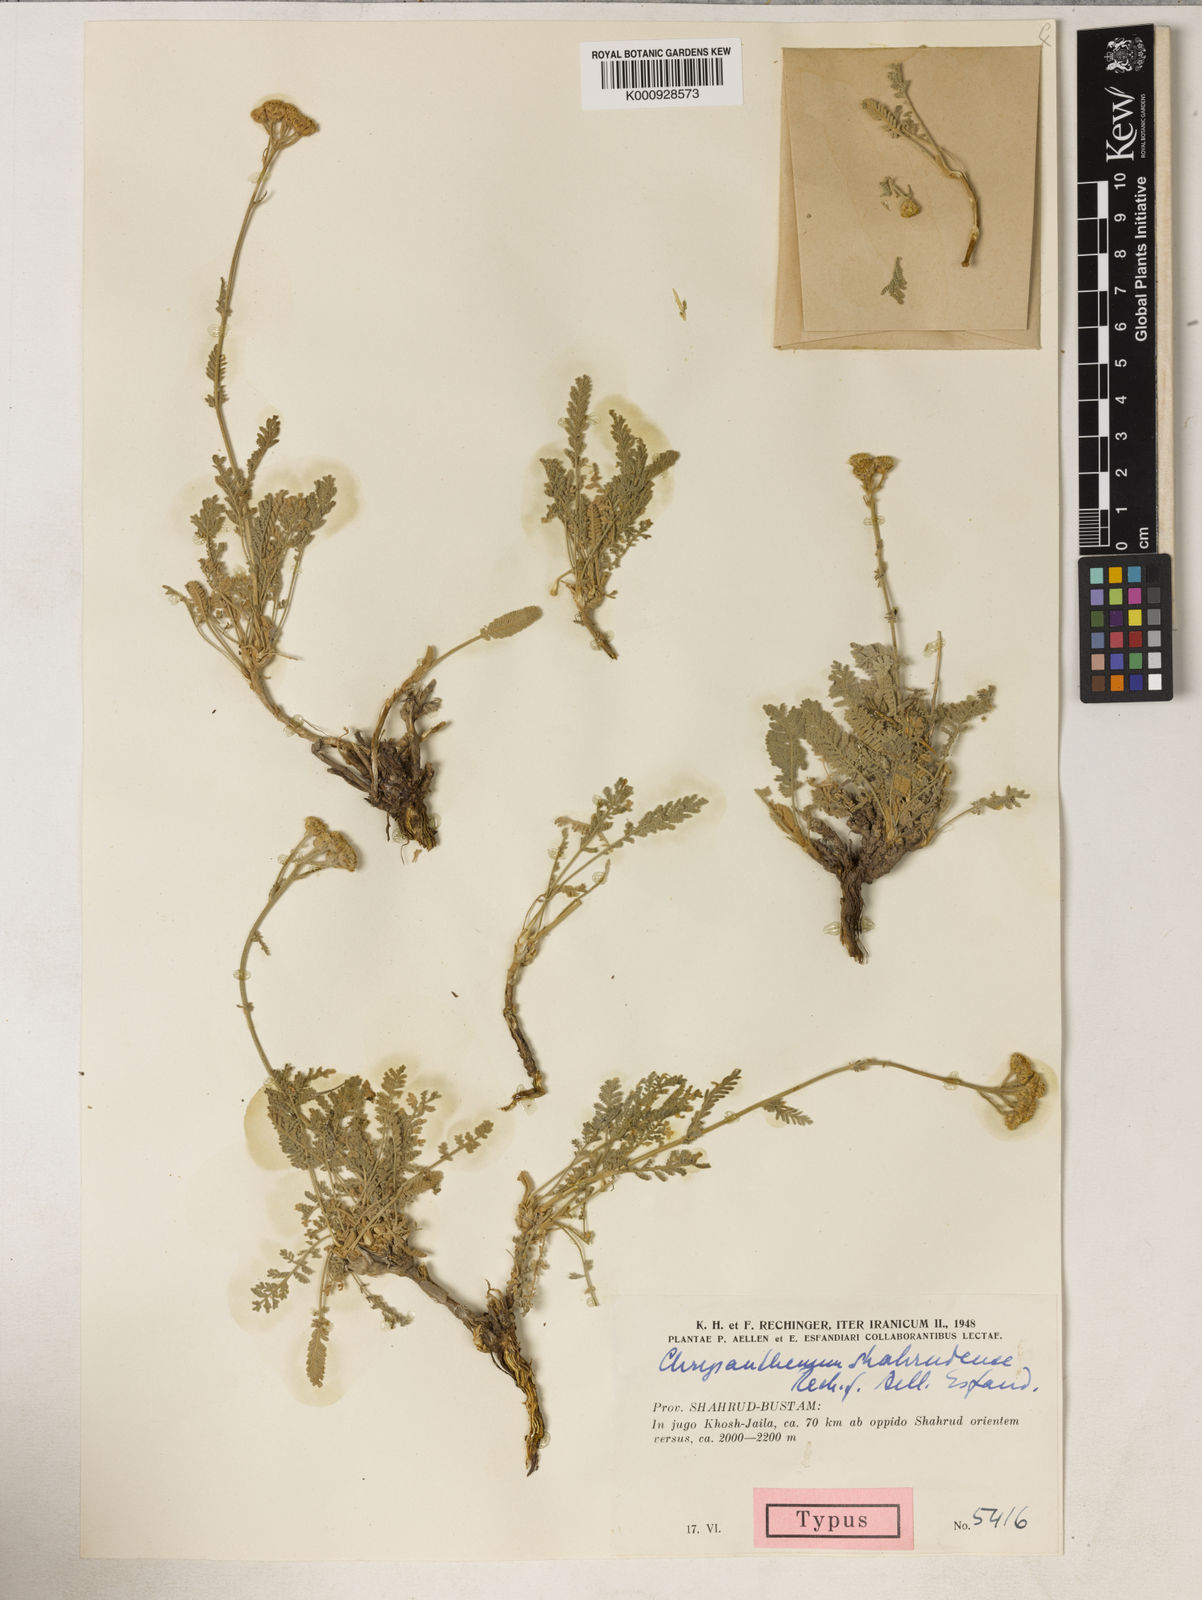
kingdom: Plantae
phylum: Tracheophyta
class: Magnoliopsida
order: Asterales
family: Asteraceae
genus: Tanacetum
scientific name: Tanacetum polycephalum
